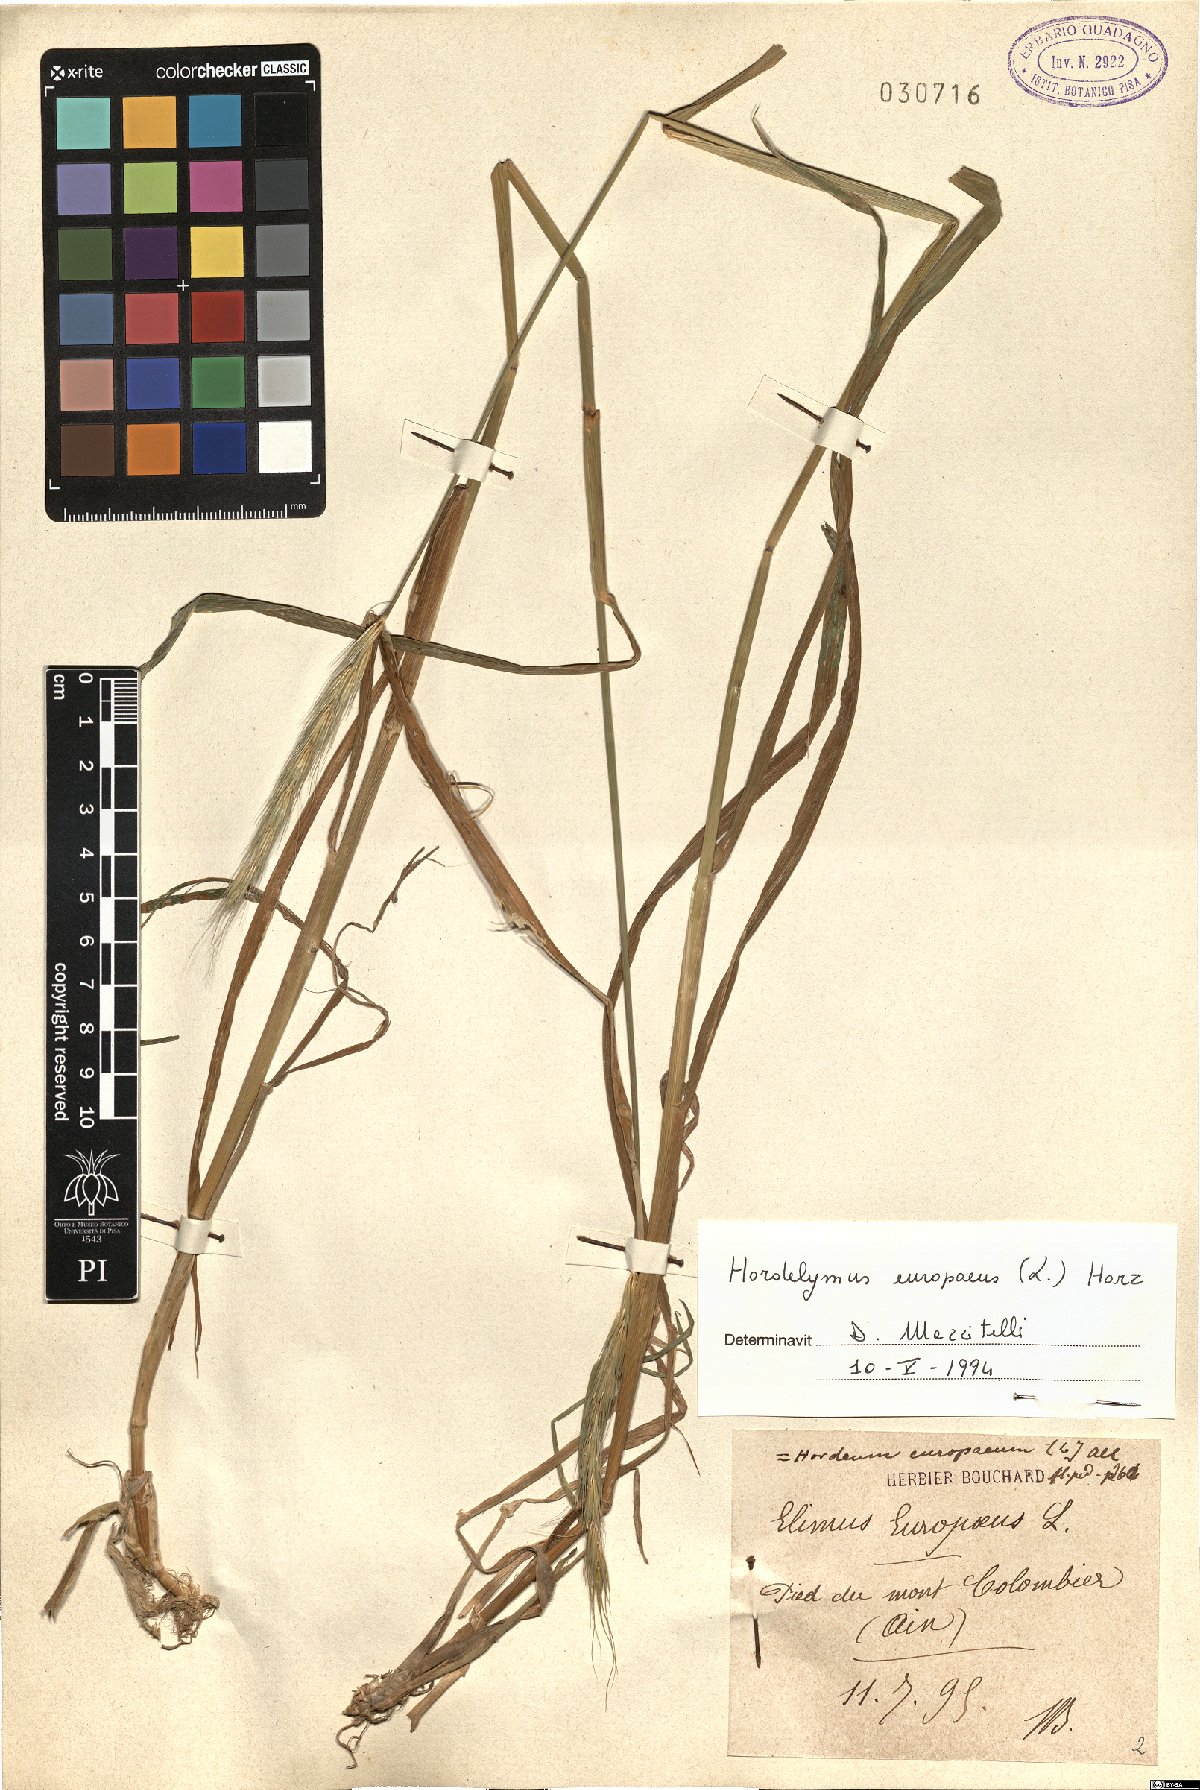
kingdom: Plantae
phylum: Tracheophyta
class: Liliopsida
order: Poales
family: Poaceae
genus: Hordelymus
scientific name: Hordelymus europaeus
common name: Wood-barley
